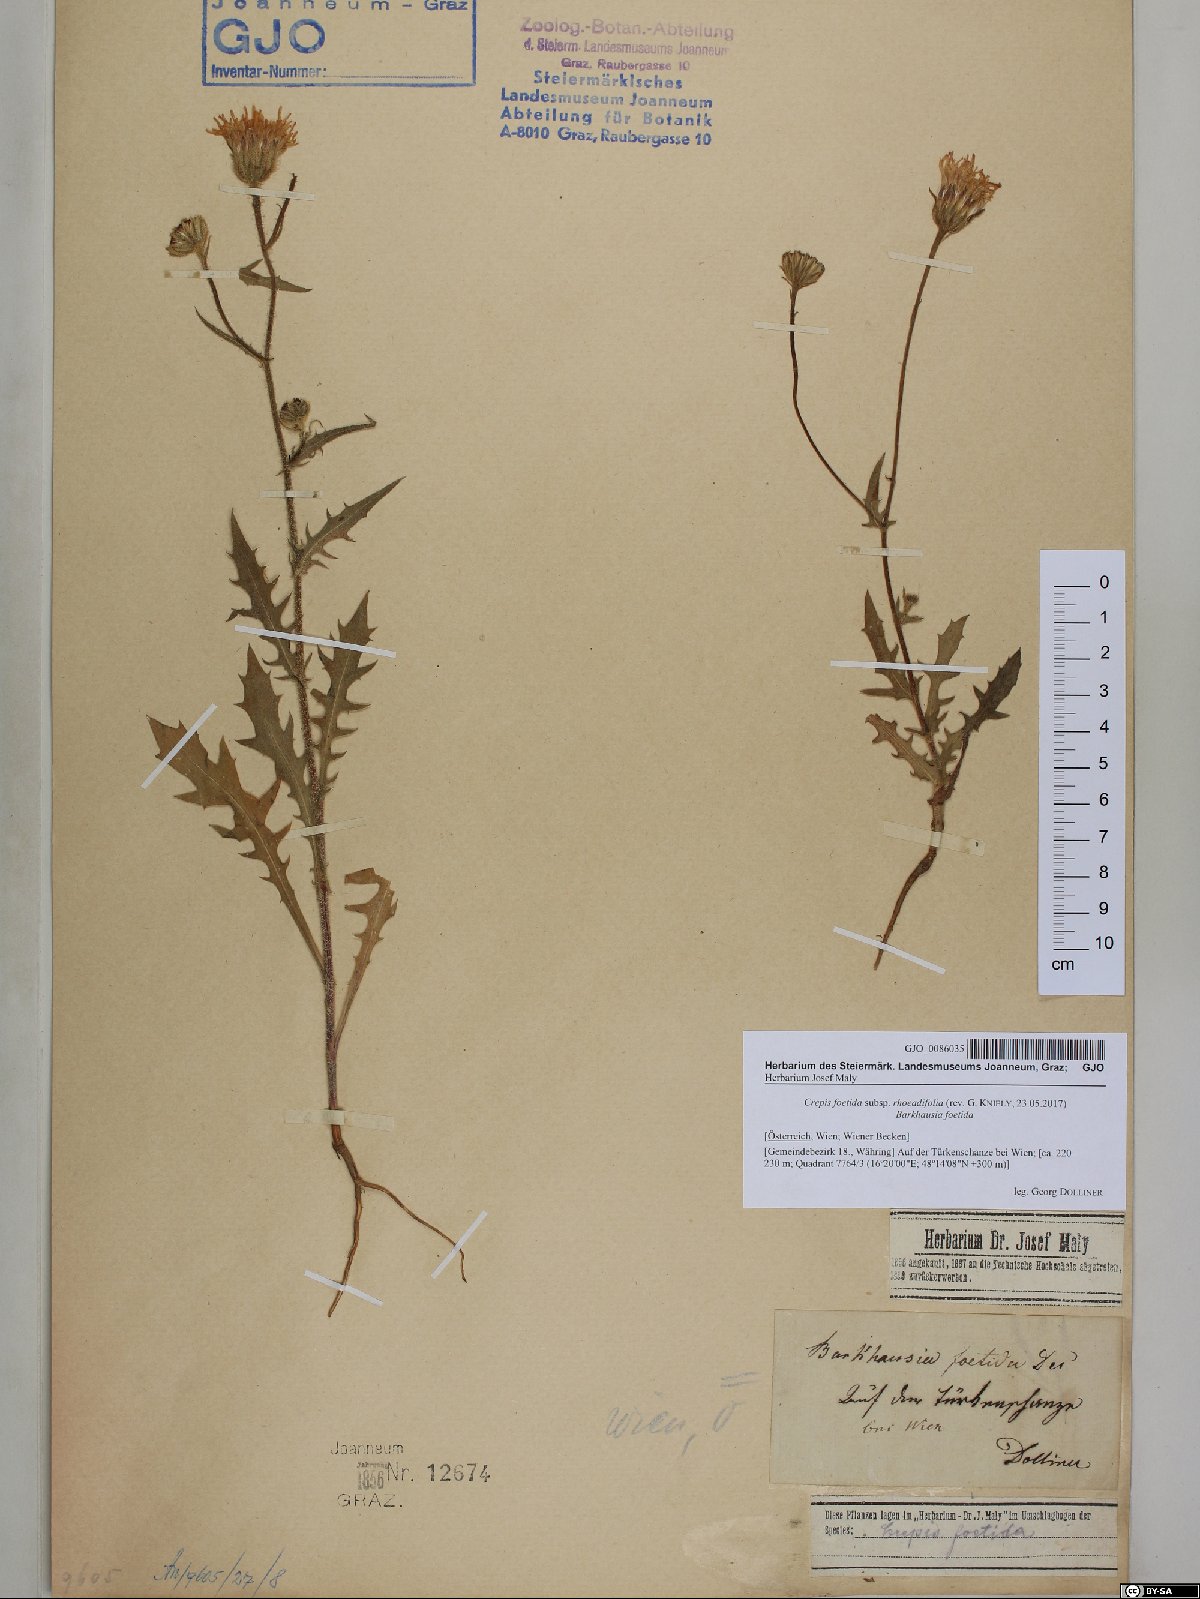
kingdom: Plantae
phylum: Tracheophyta
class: Magnoliopsida
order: Asterales
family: Asteraceae
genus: Crepis
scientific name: Crepis foetida
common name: Stinking hawk's-beard
